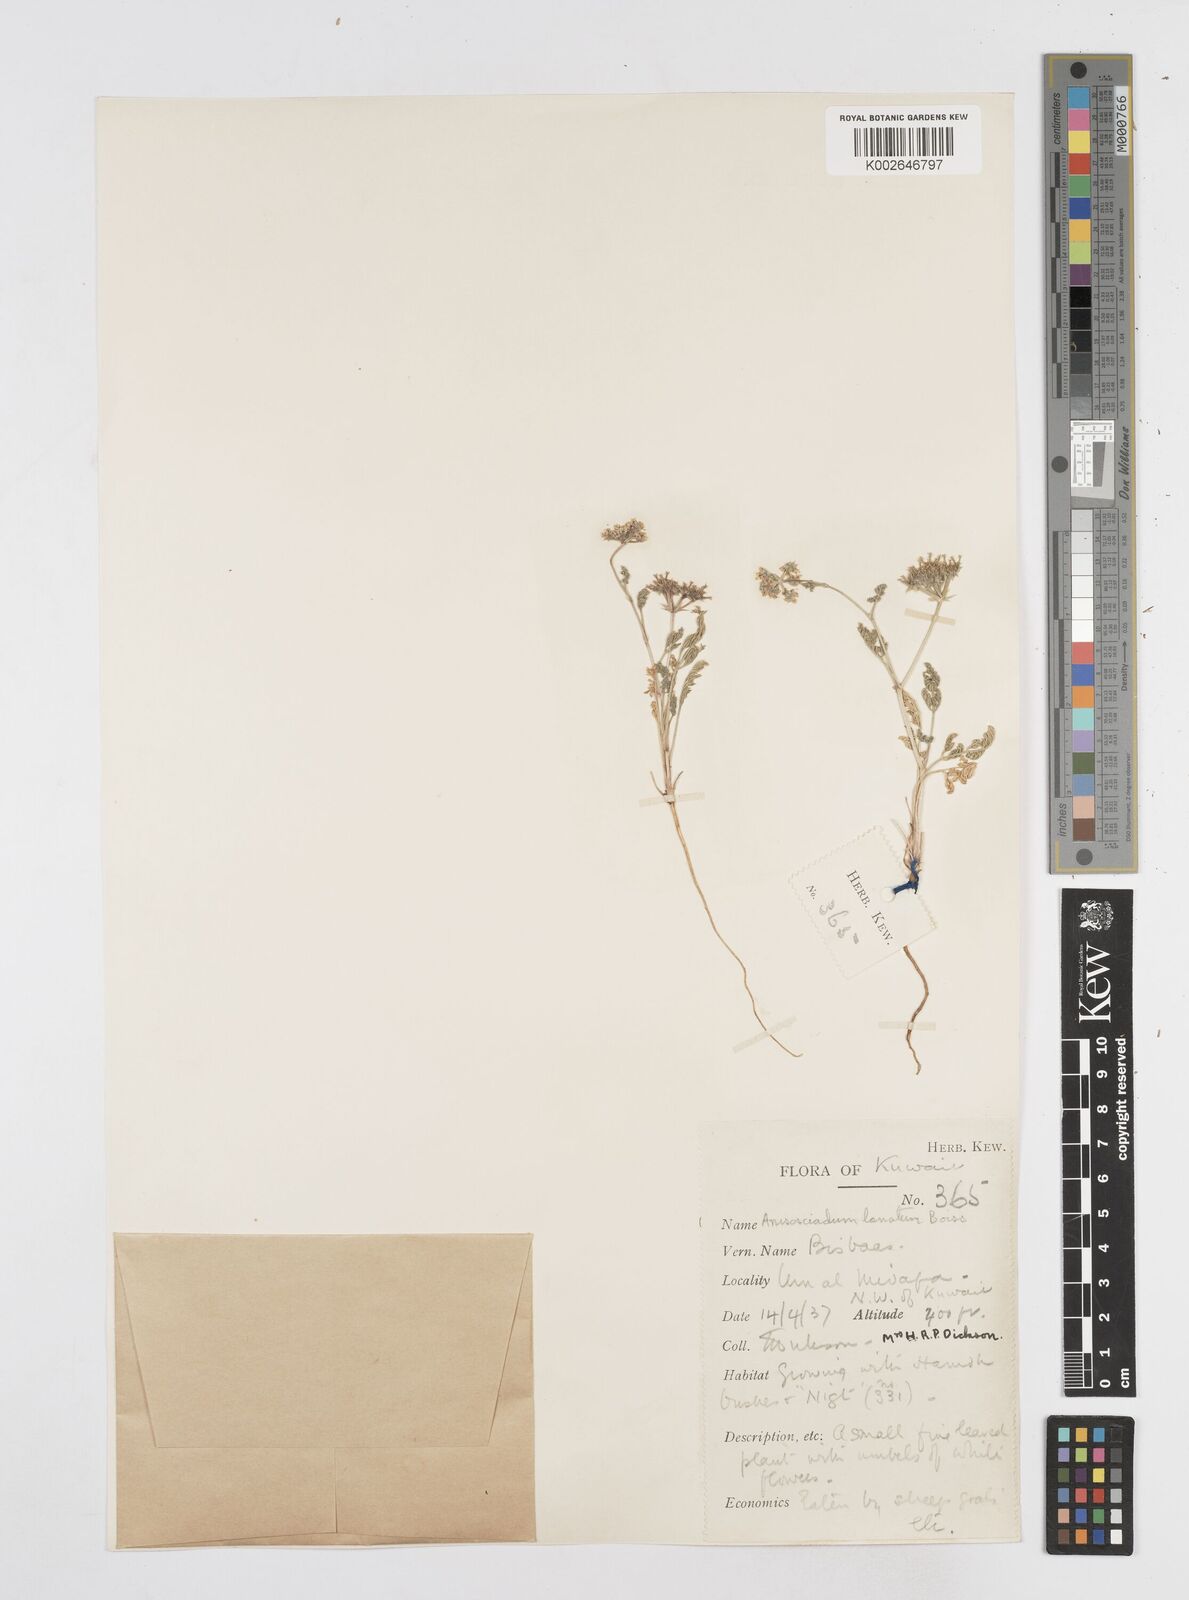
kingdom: Plantae
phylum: Tracheophyta
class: Magnoliopsida
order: Apiales
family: Apiaceae
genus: Anisosciadium
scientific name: Anisosciadium lanatum
